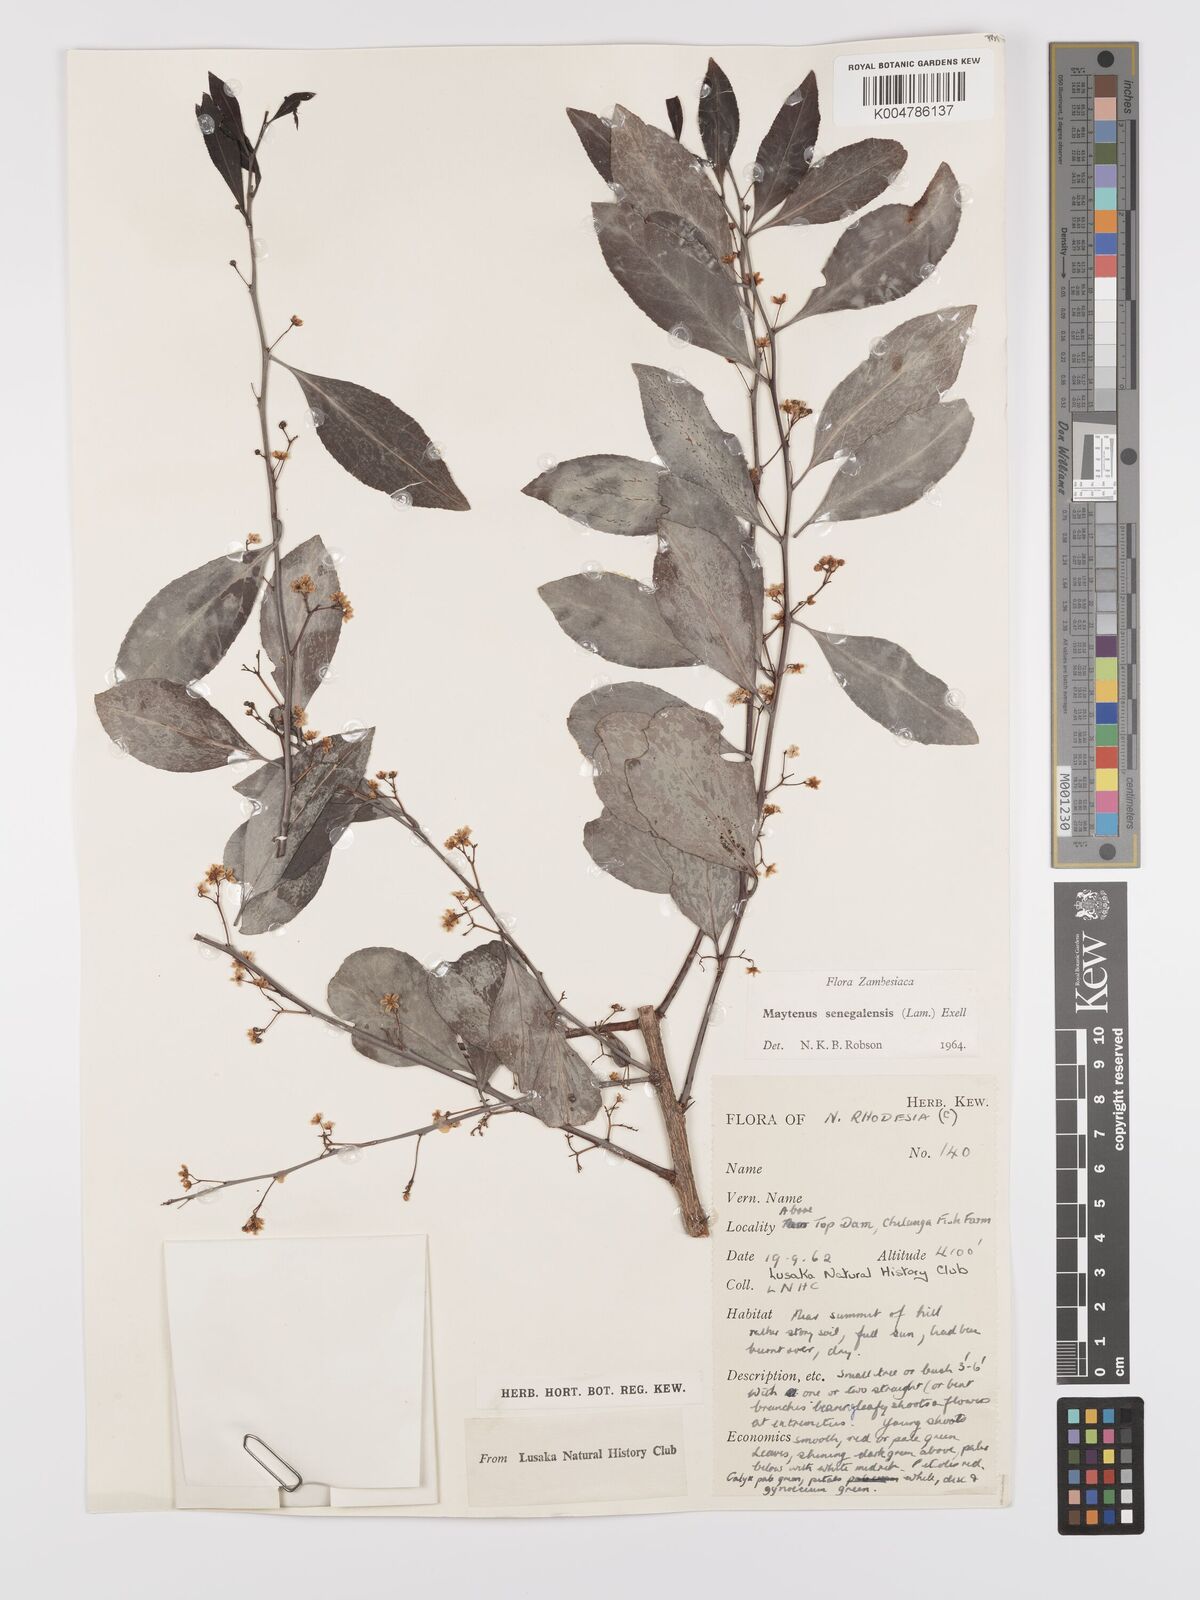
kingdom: Plantae
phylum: Tracheophyta
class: Magnoliopsida
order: Celastrales
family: Celastraceae
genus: Gymnosporia
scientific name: Gymnosporia senegalensis
